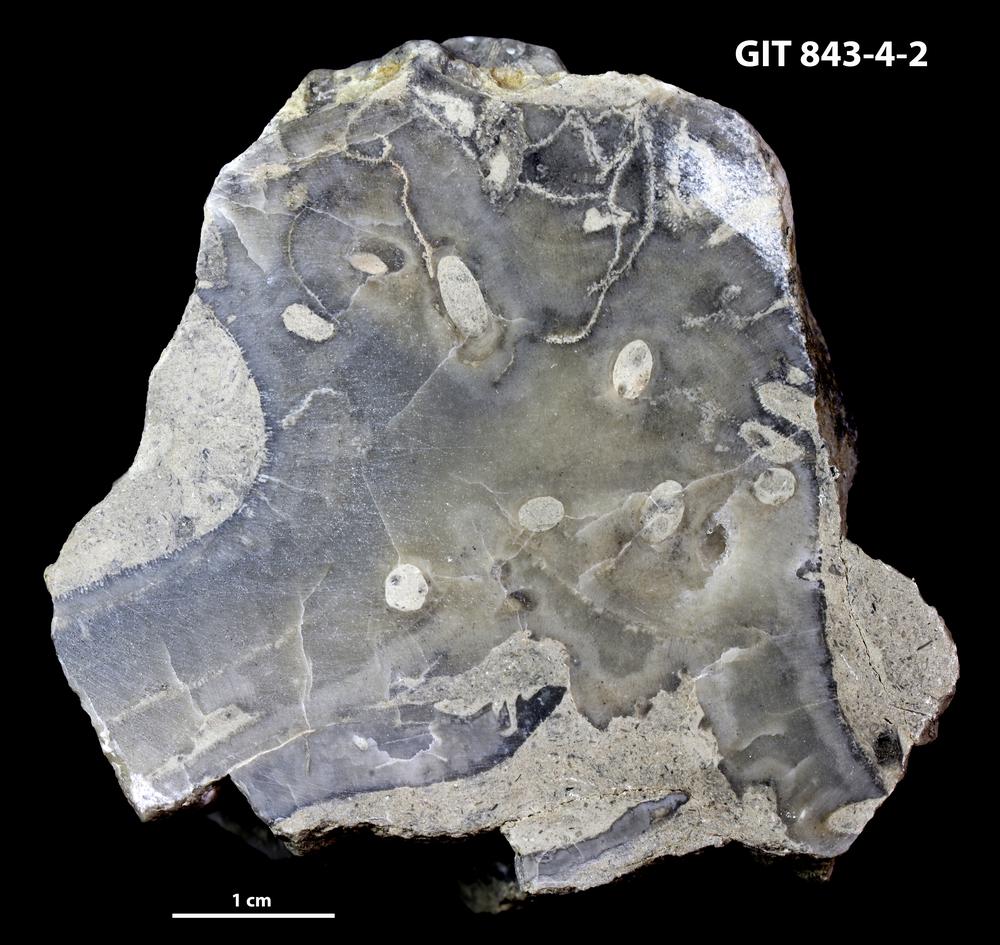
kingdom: Animalia
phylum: Sipuncula
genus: Trypanites
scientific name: Trypanites
